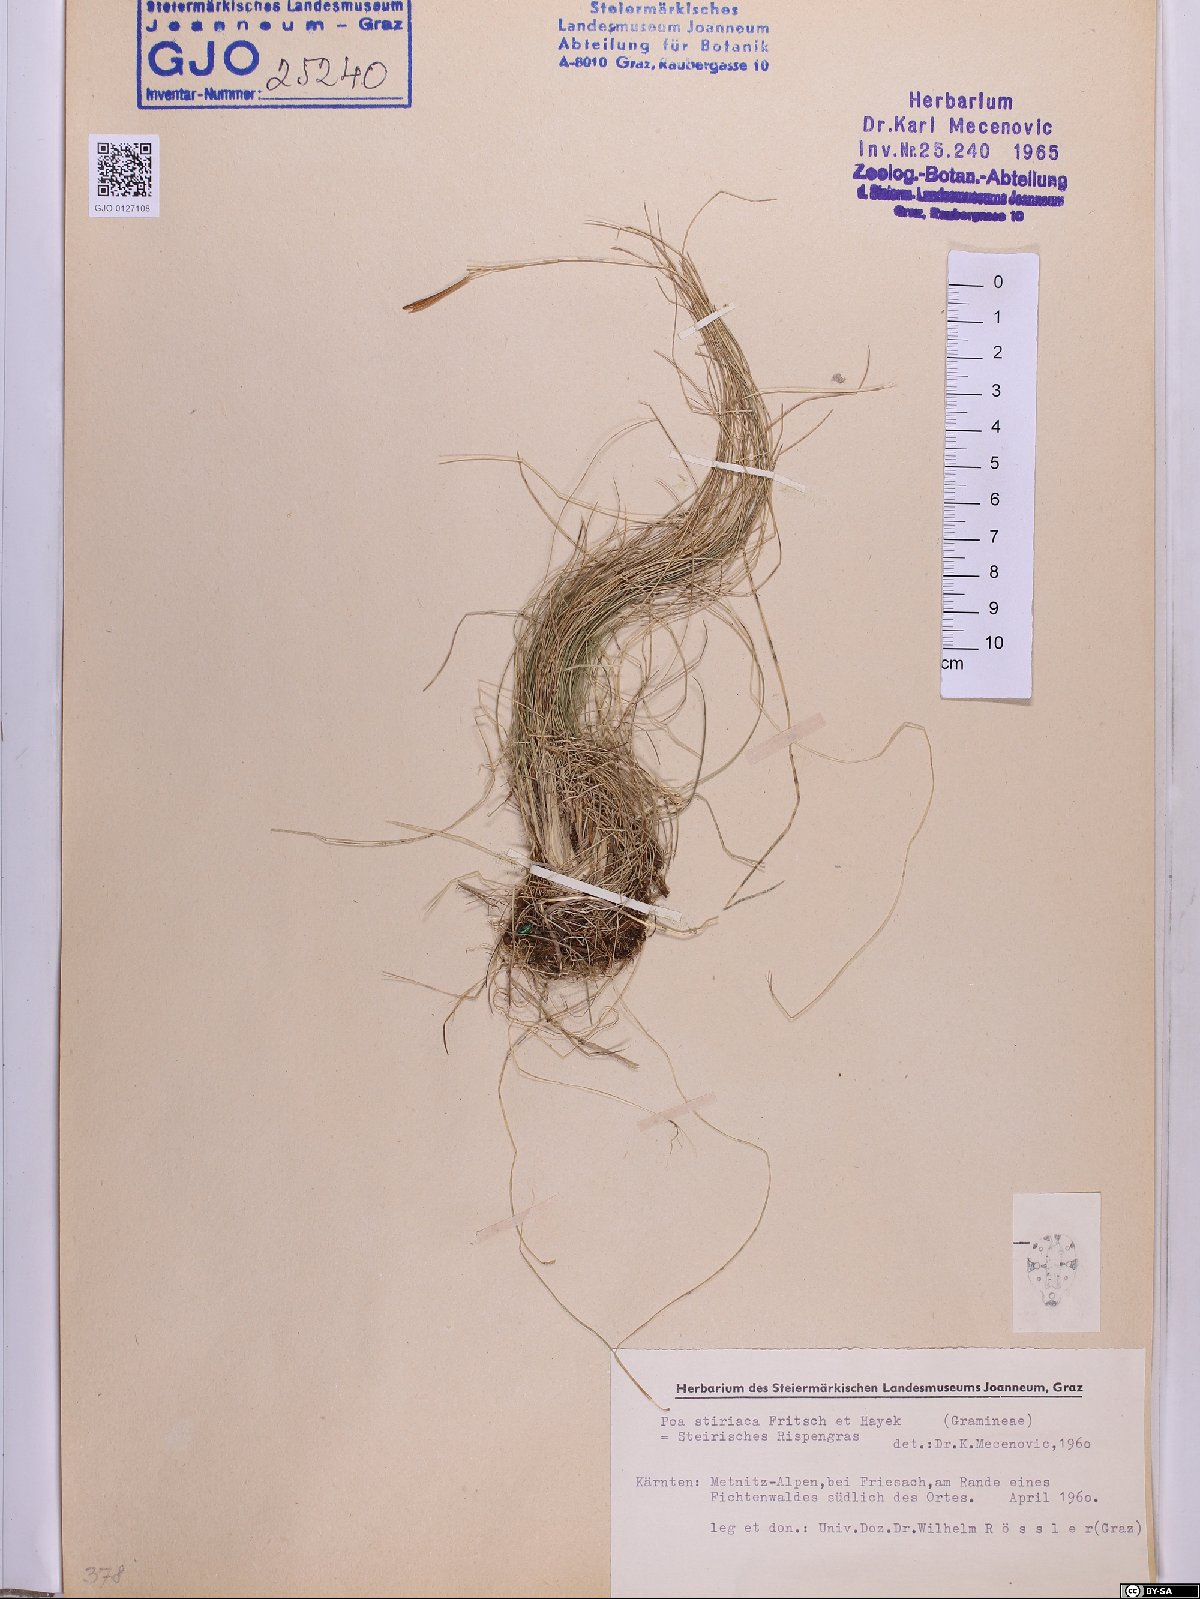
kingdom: Plantae
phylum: Tracheophyta
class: Liliopsida
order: Poales
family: Poaceae
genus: Poa
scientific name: Poa stiriaca
